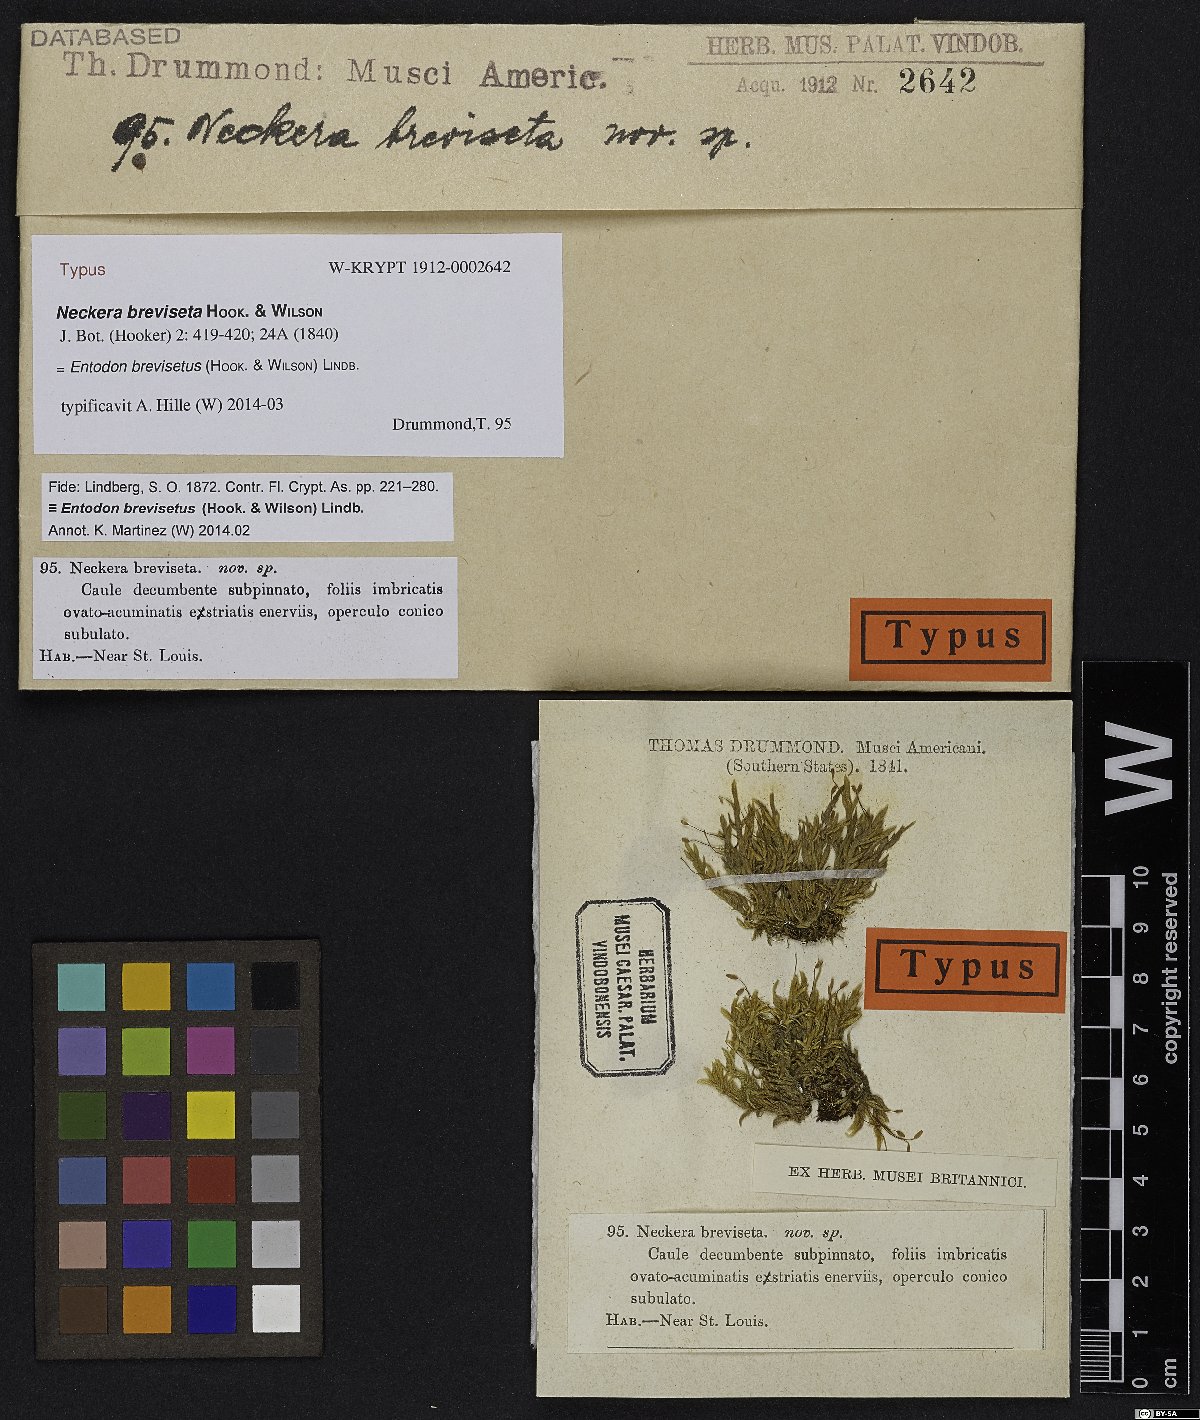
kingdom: Plantae
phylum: Bryophyta
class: Bryopsida
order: Hypnales
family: Entodontaceae
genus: Entodon
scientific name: Entodon brevisetus
